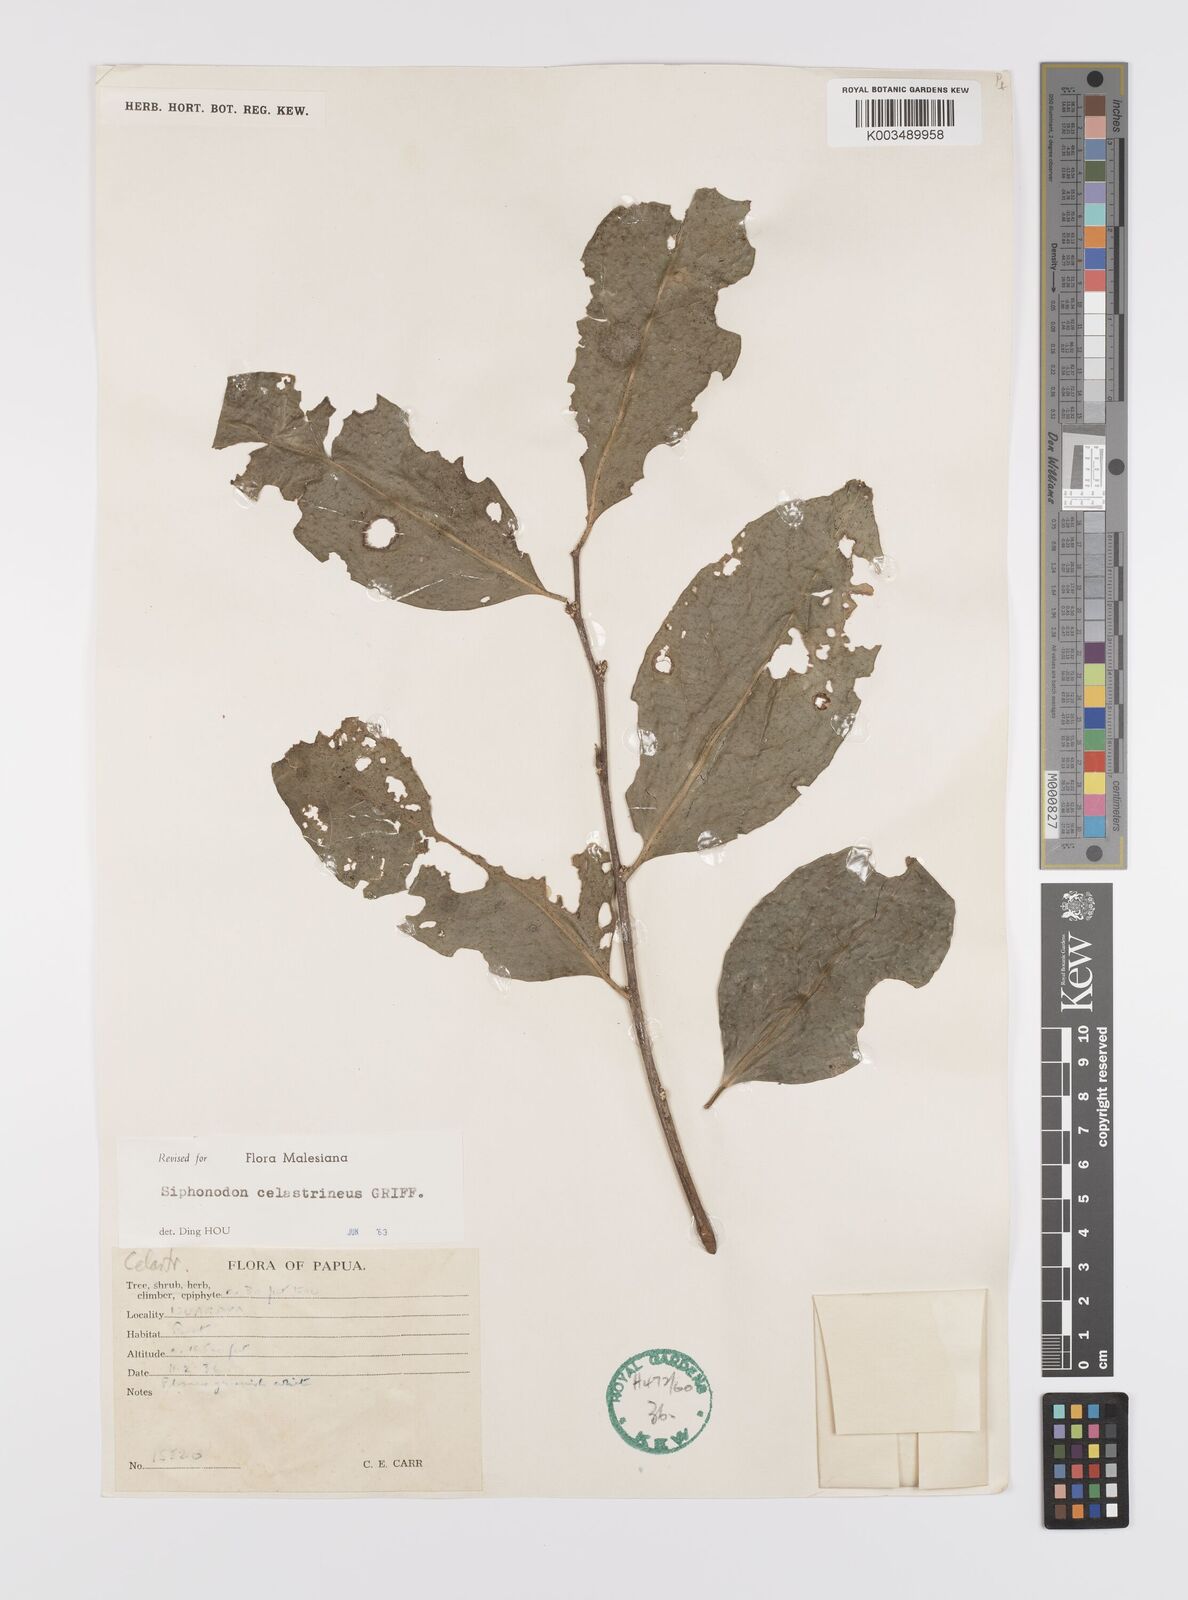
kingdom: Plantae
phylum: Tracheophyta
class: Magnoliopsida
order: Celastrales
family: Celastraceae
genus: Siphonodon
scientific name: Siphonodon celastrineus
